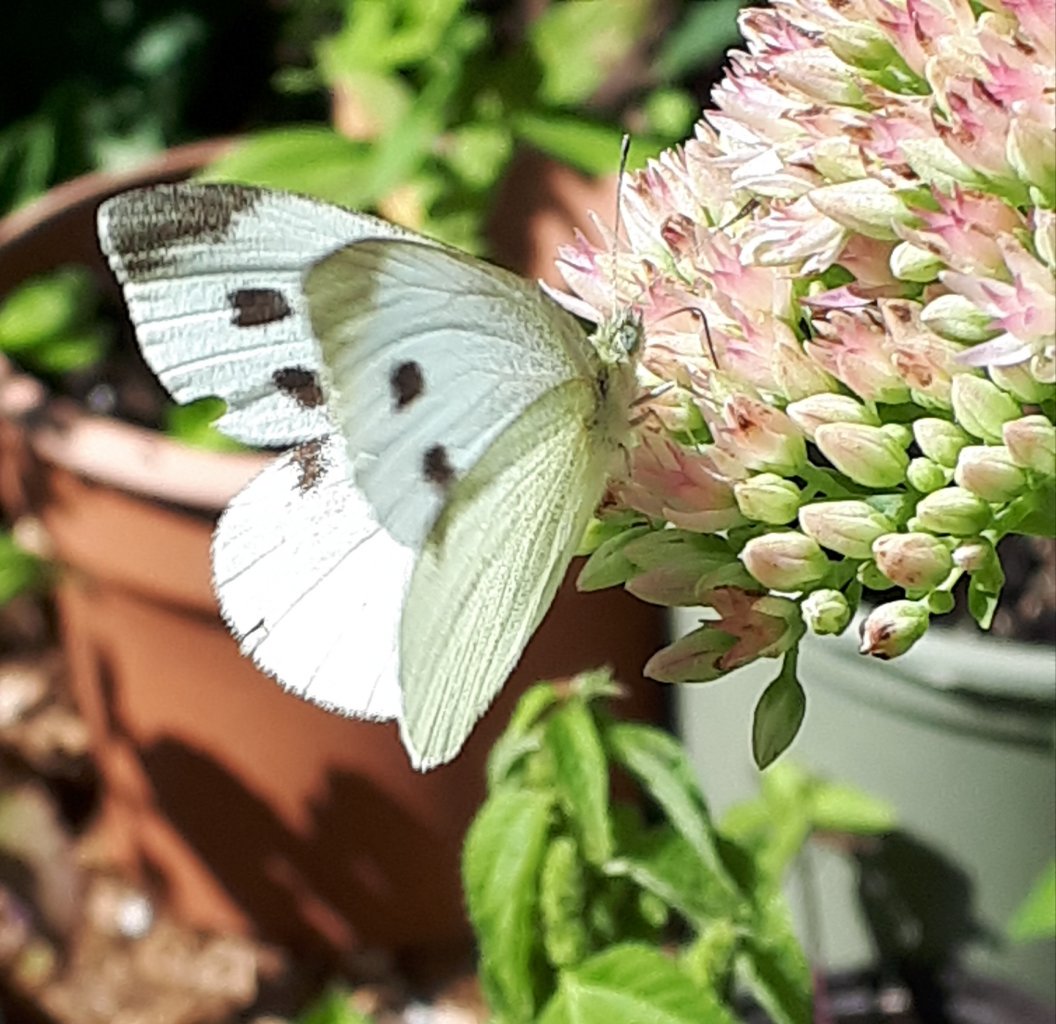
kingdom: Animalia
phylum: Arthropoda
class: Insecta
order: Lepidoptera
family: Pieridae
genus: Pieris
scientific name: Pieris rapae
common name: Cabbage White
